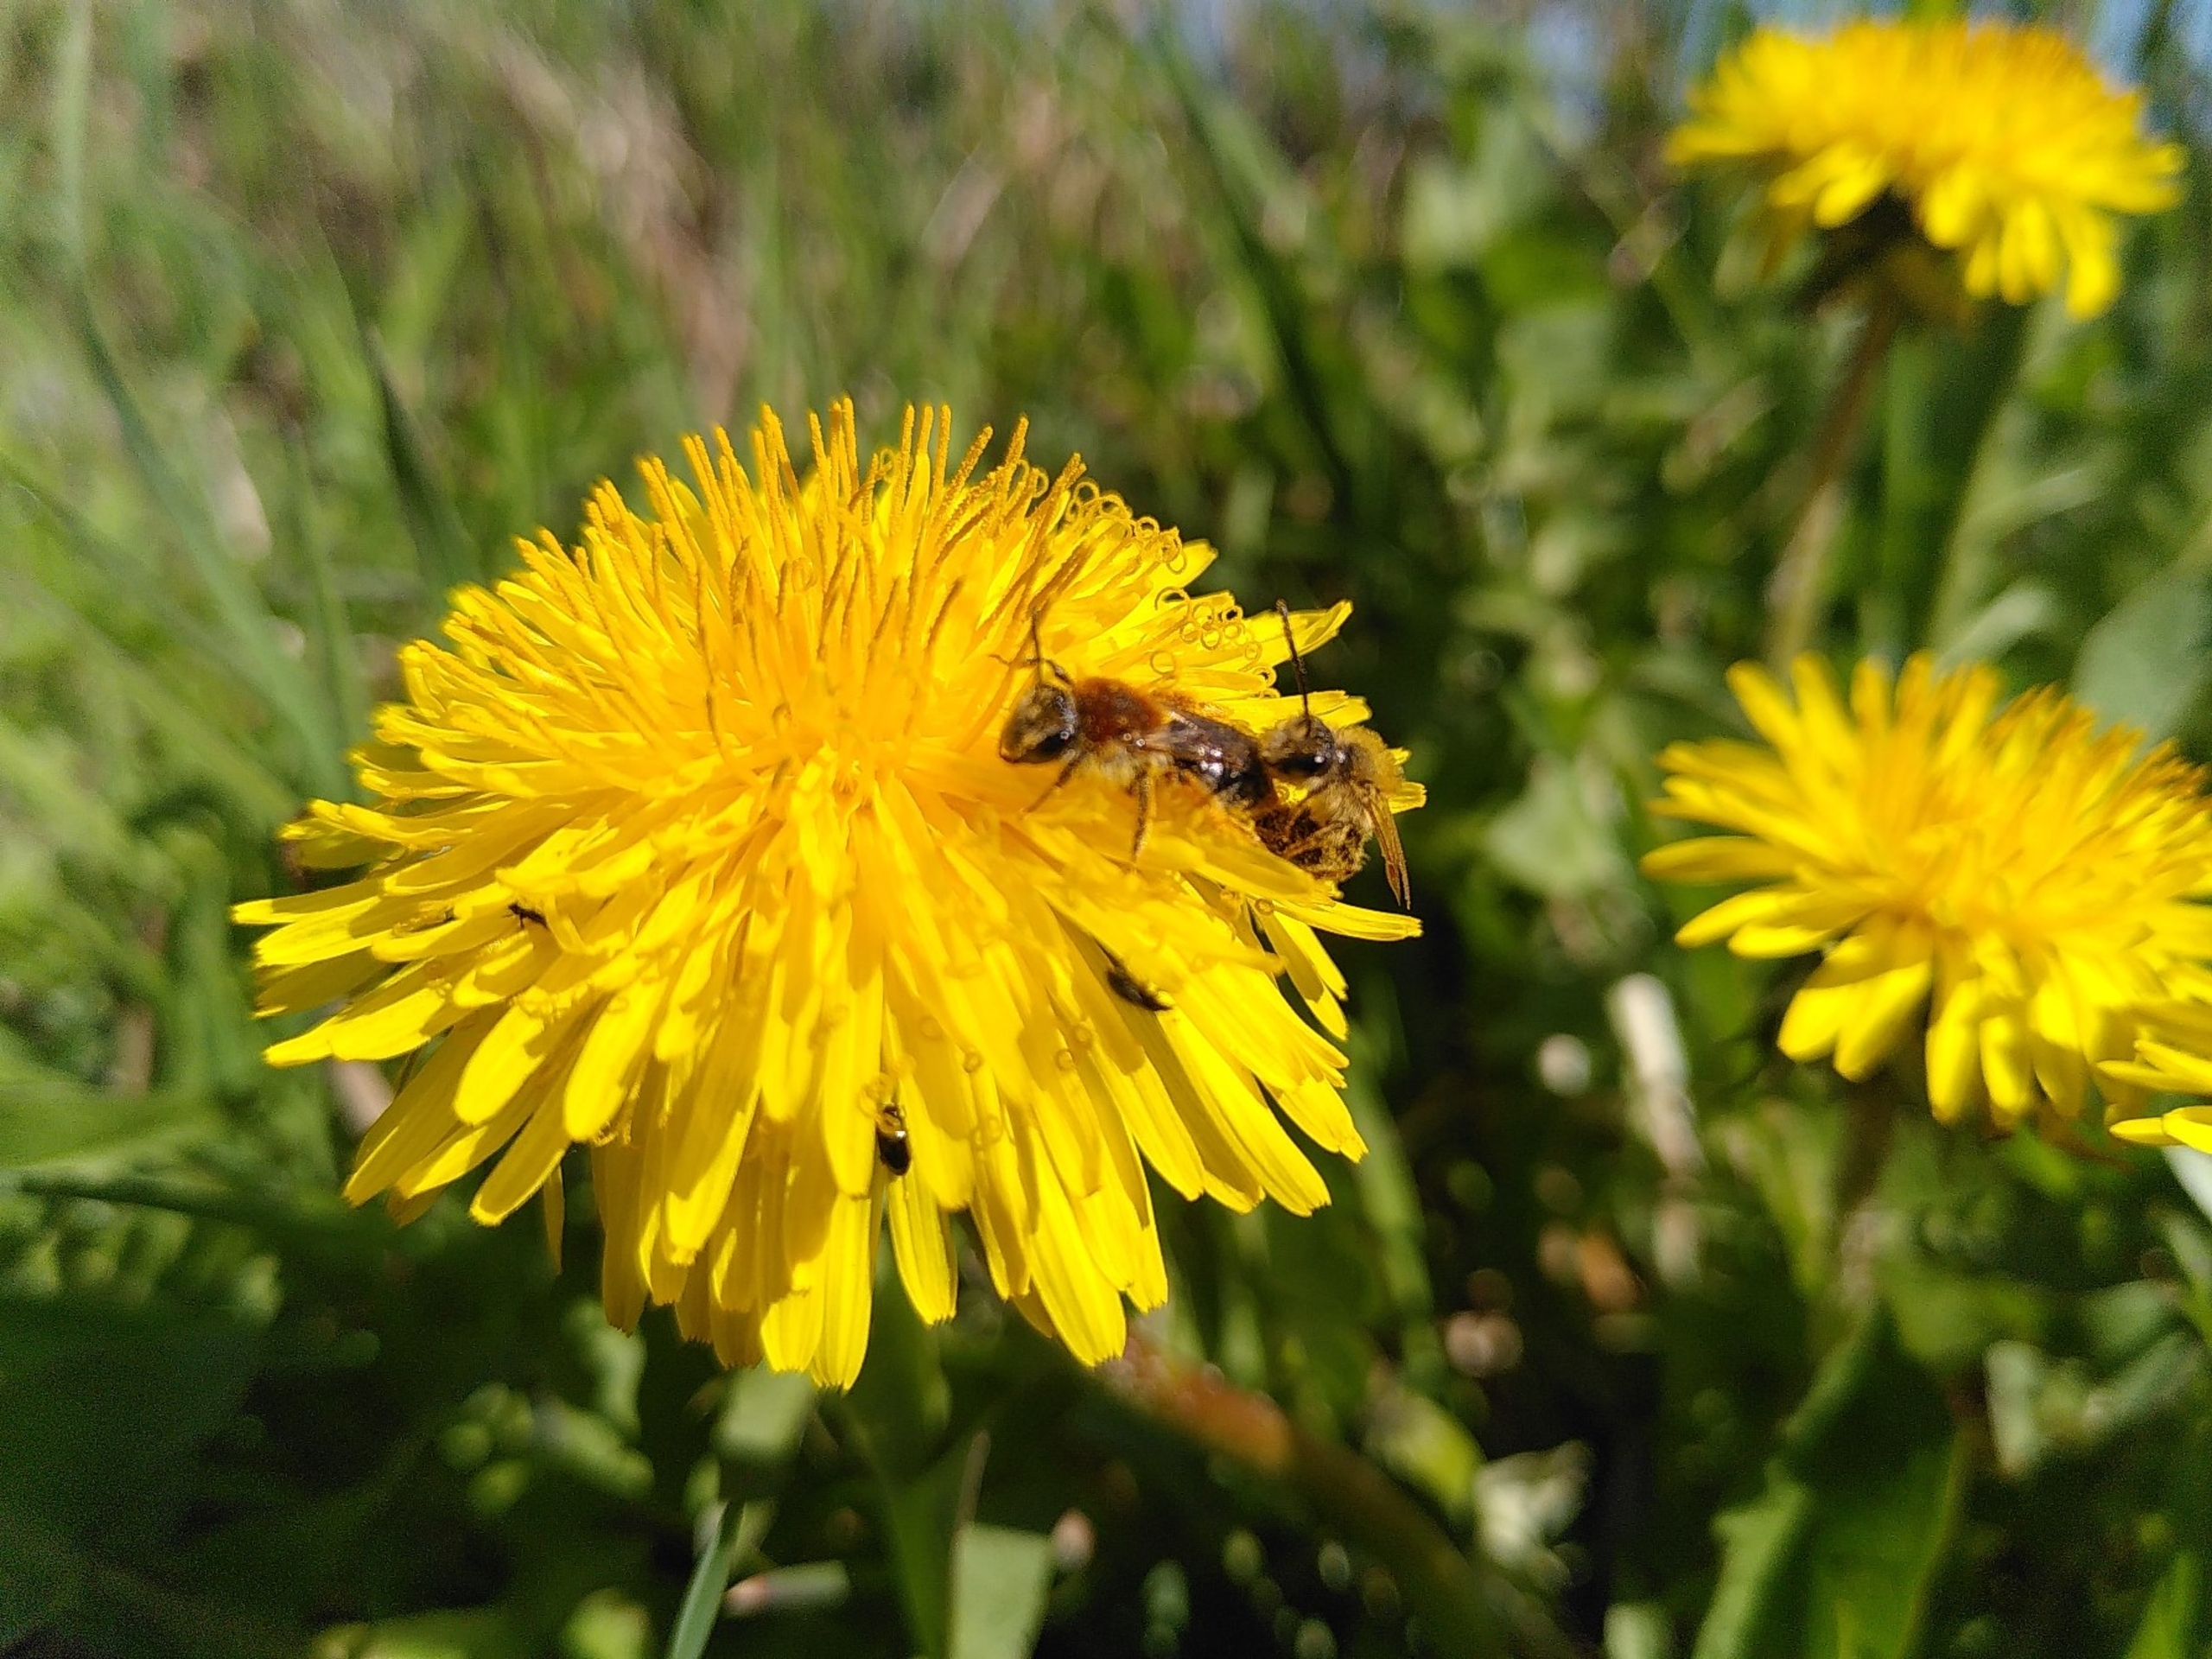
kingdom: Animalia
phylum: Arthropoda
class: Insecta
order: Hymenoptera
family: Andrenidae
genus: Andrena
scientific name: Andrena haemorrhoa
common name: Havejordbi
